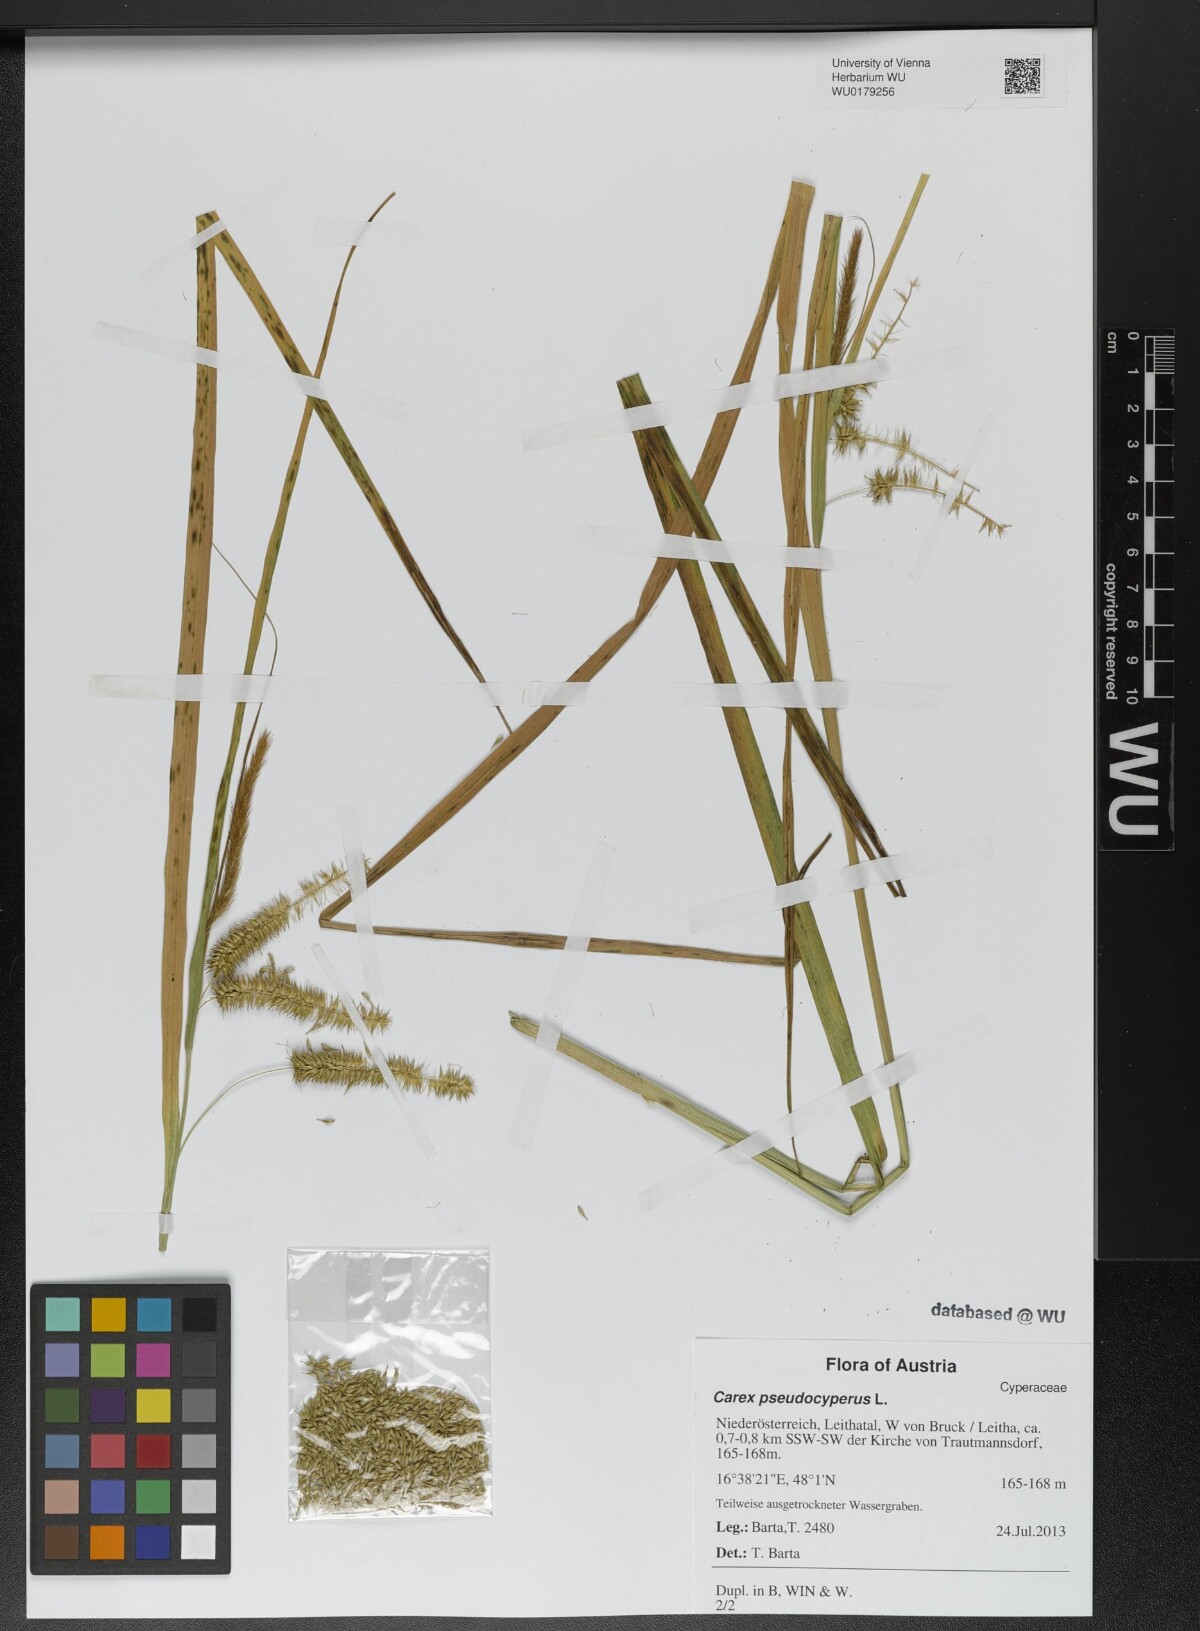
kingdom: Plantae
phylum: Tracheophyta
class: Liliopsida
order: Poales
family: Cyperaceae
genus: Carex
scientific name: Carex pseudocyperus
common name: Cyperus sedge
